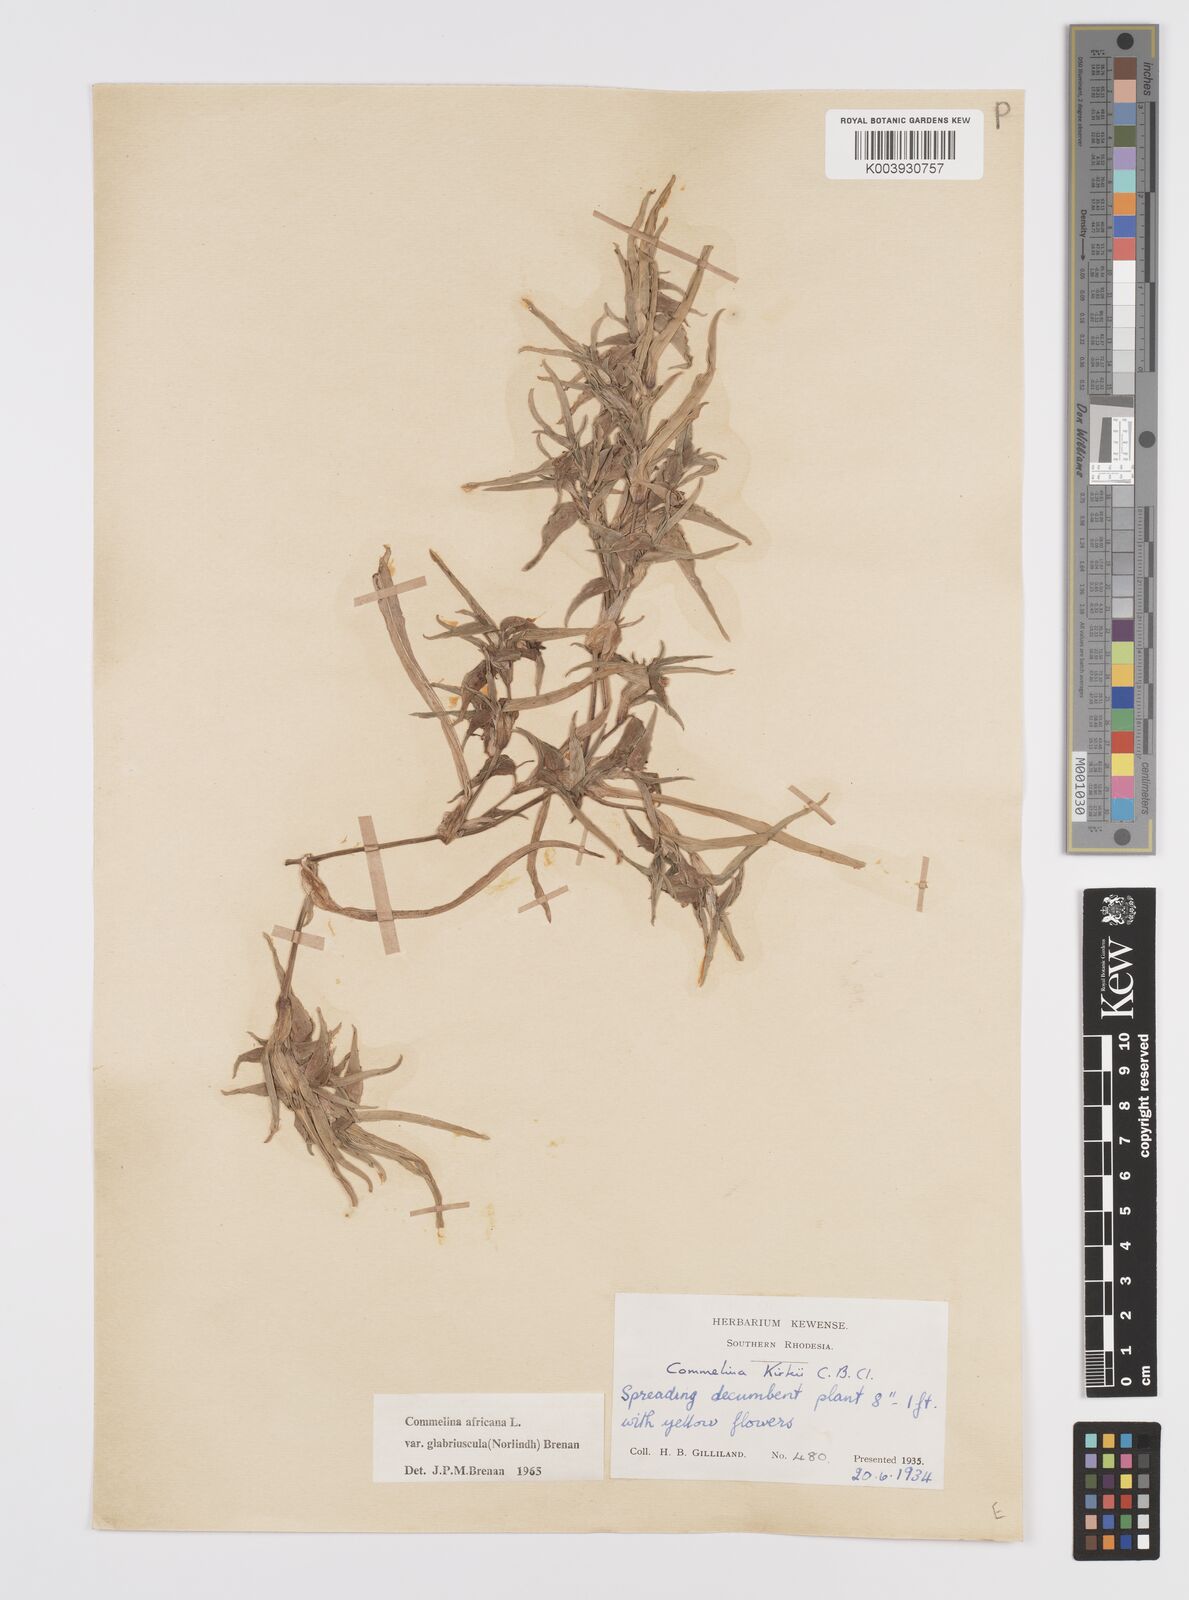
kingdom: Plantae
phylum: Tracheophyta
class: Liliopsida
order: Commelinales
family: Commelinaceae
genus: Commelina
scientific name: Commelina africana
